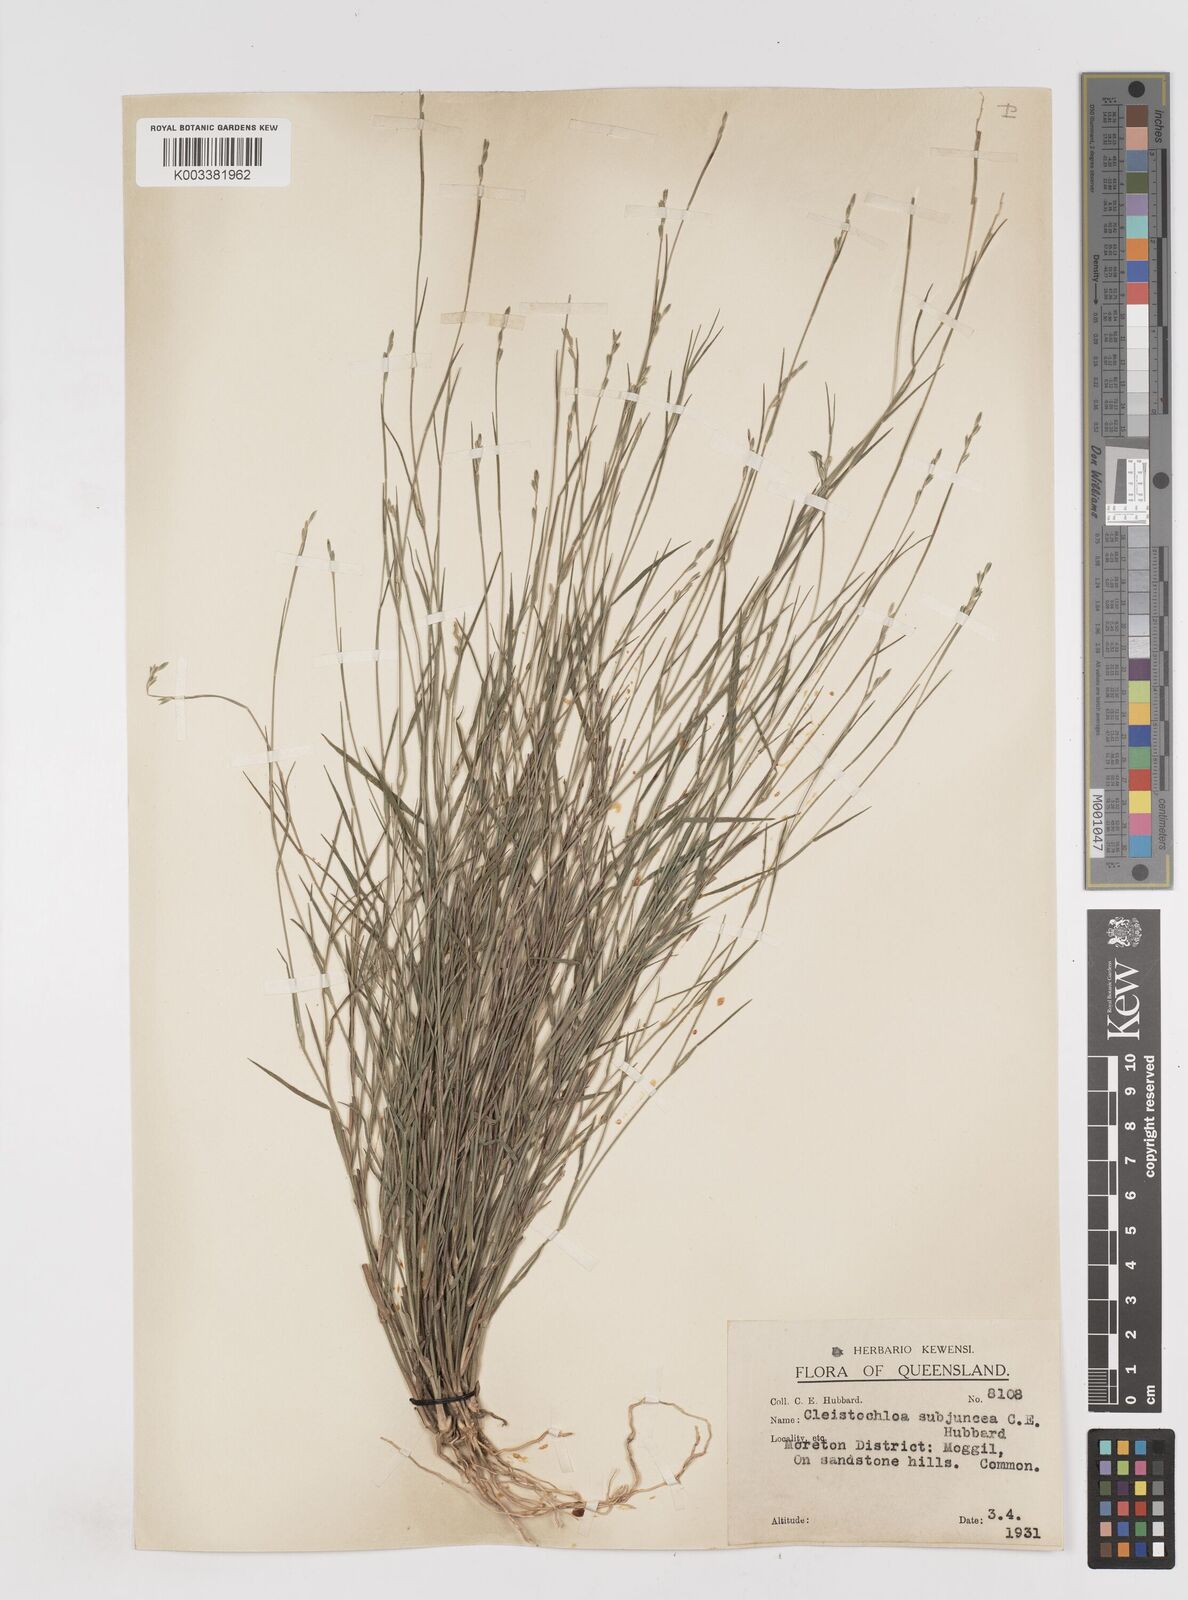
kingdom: Plantae
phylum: Tracheophyta
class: Liliopsida
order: Poales
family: Poaceae
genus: Cleistochloa
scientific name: Cleistochloa subjuncea
